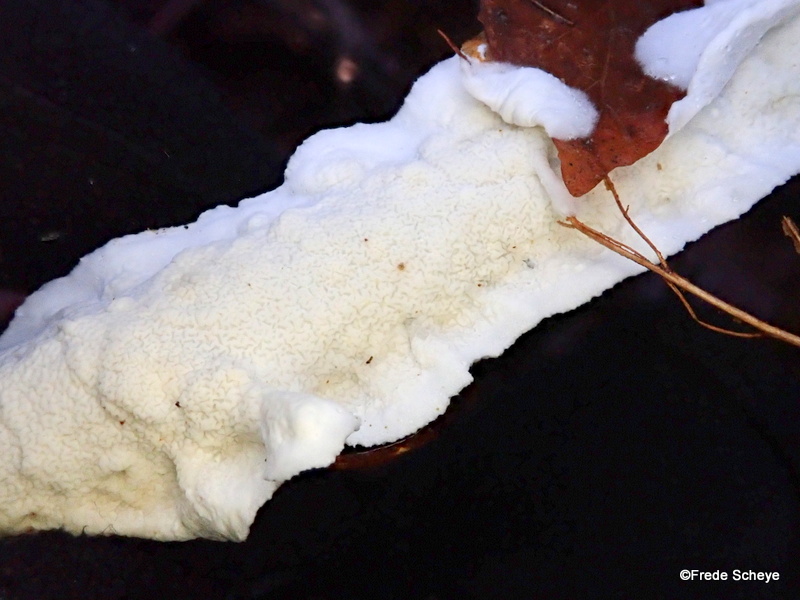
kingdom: Fungi
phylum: Basidiomycota
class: Agaricomycetes
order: Polyporales
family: Irpicaceae
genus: Byssomerulius
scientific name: Byssomerulius corium
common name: læder-åresvamp
